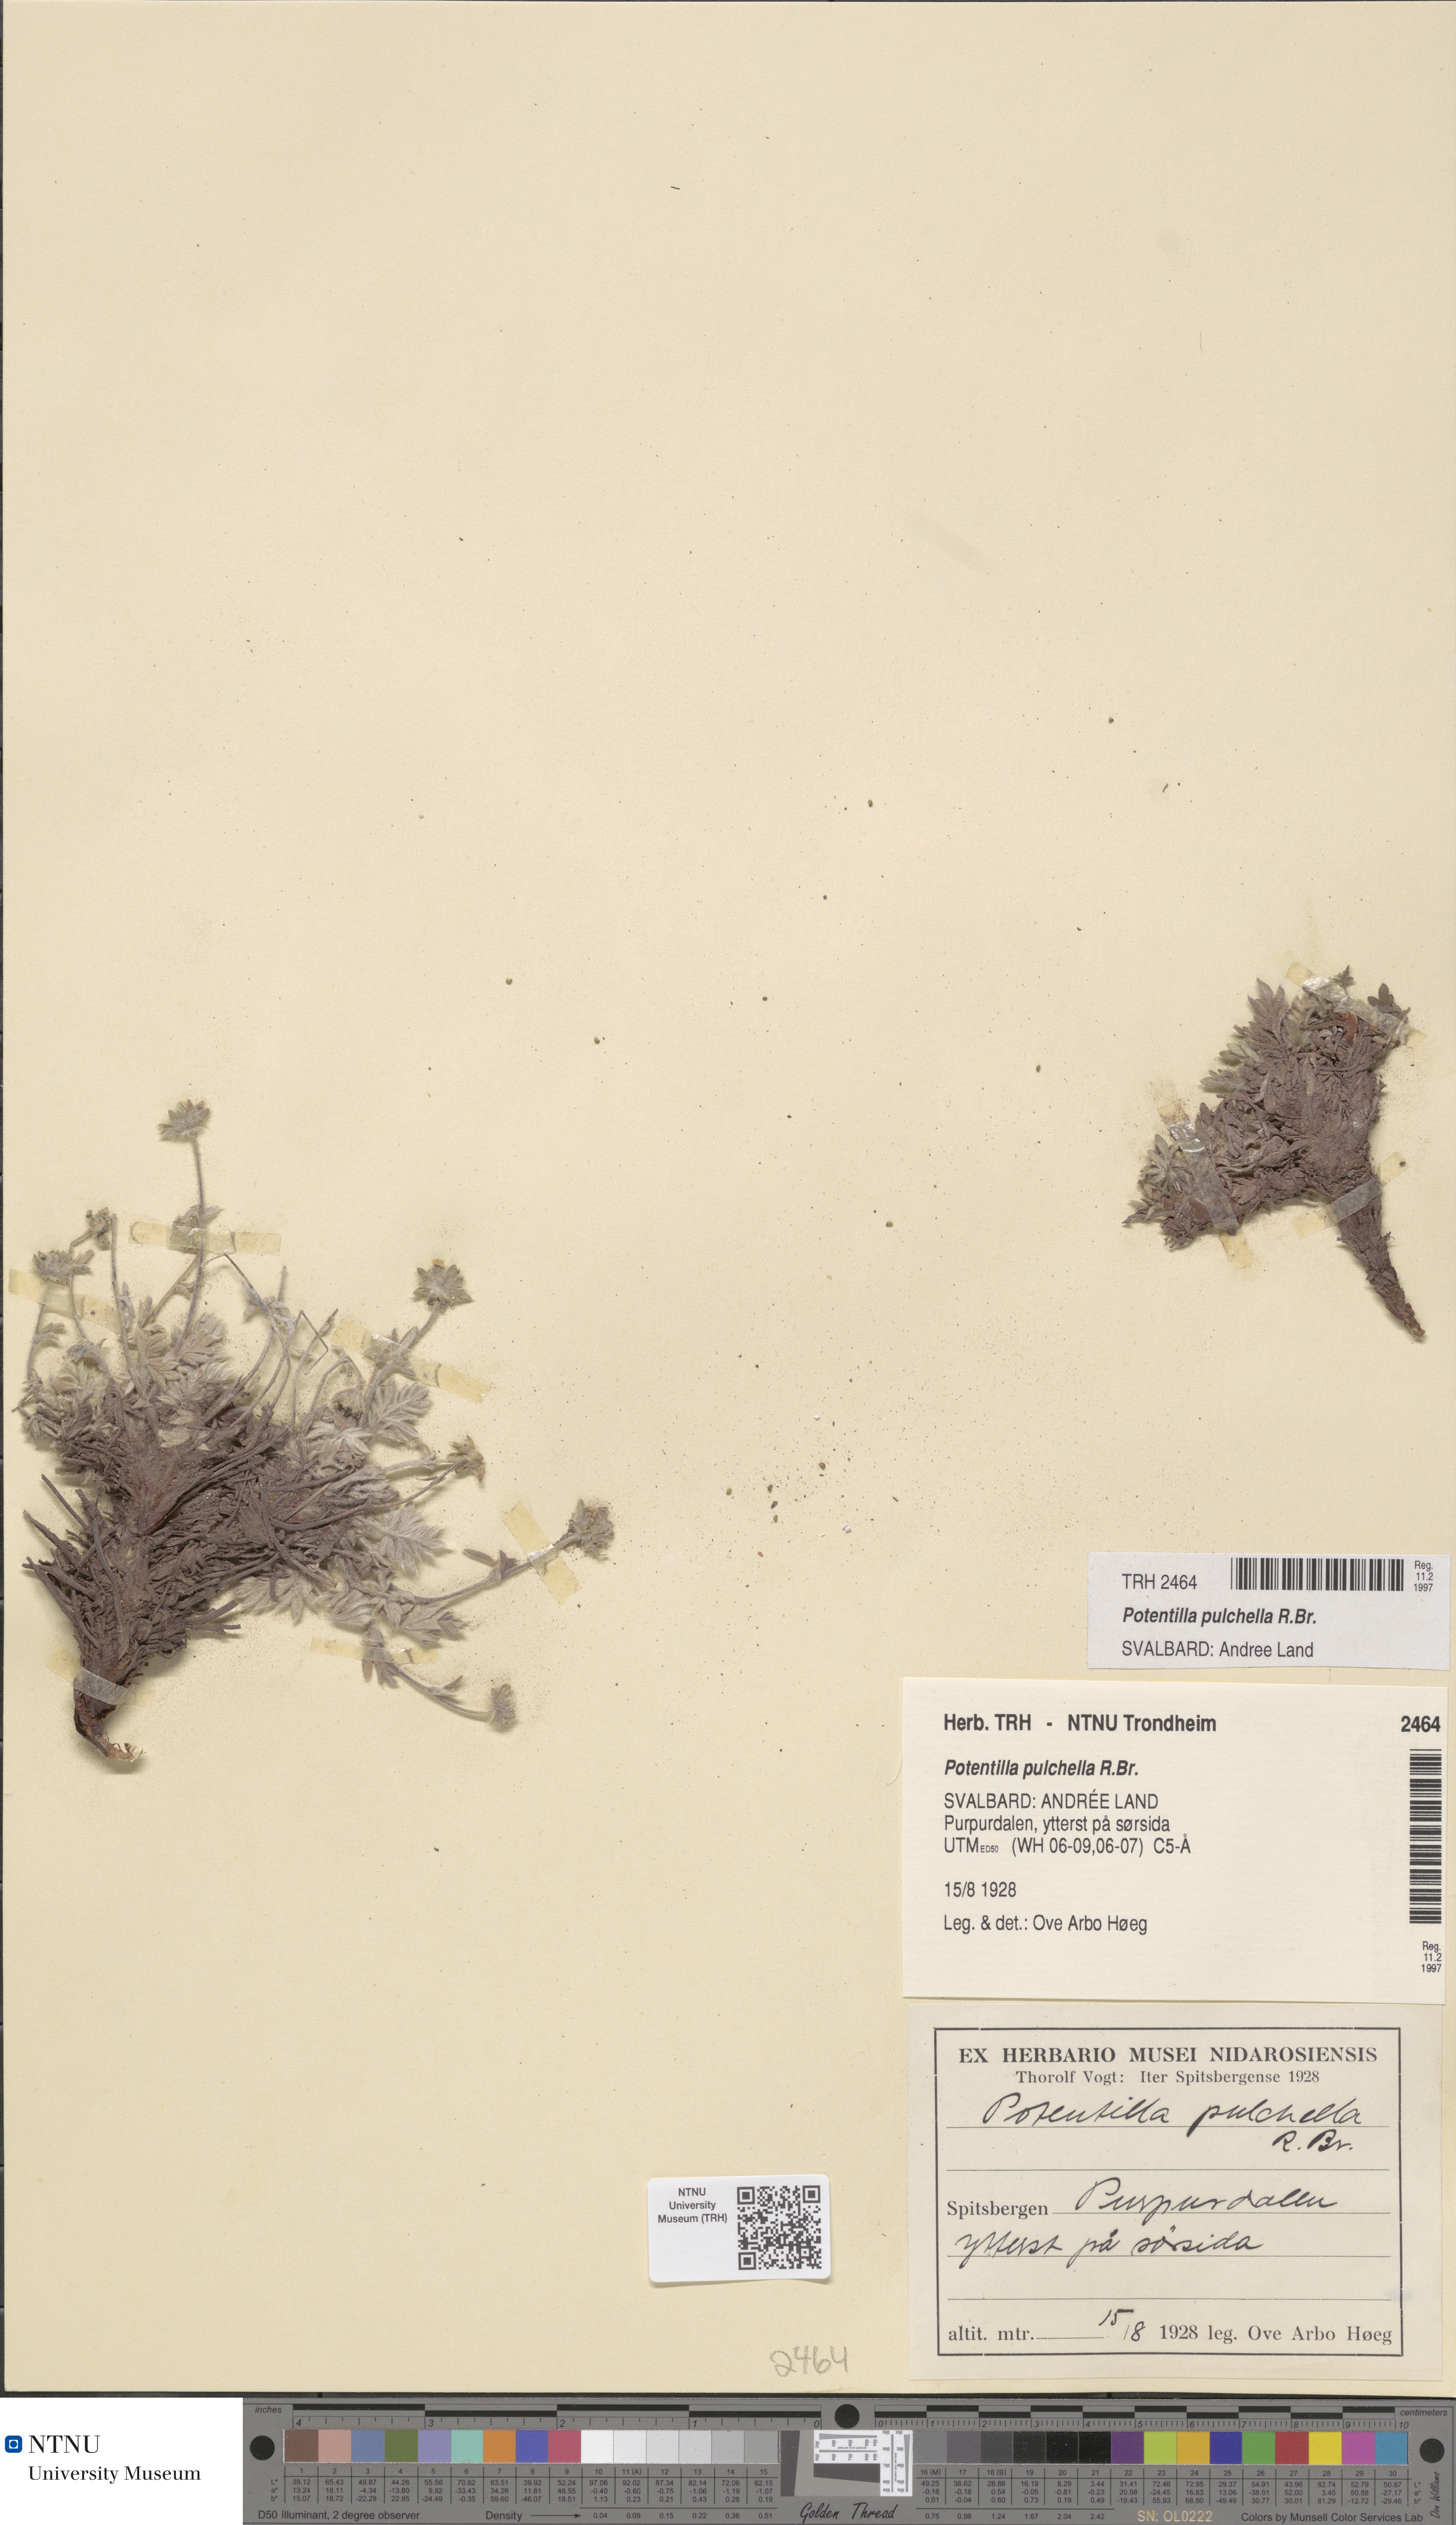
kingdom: Plantae
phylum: Tracheophyta
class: Magnoliopsida
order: Rosales
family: Rosaceae
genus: Potentilla
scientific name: Potentilla pulchella
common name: Pretty cinquefoil
